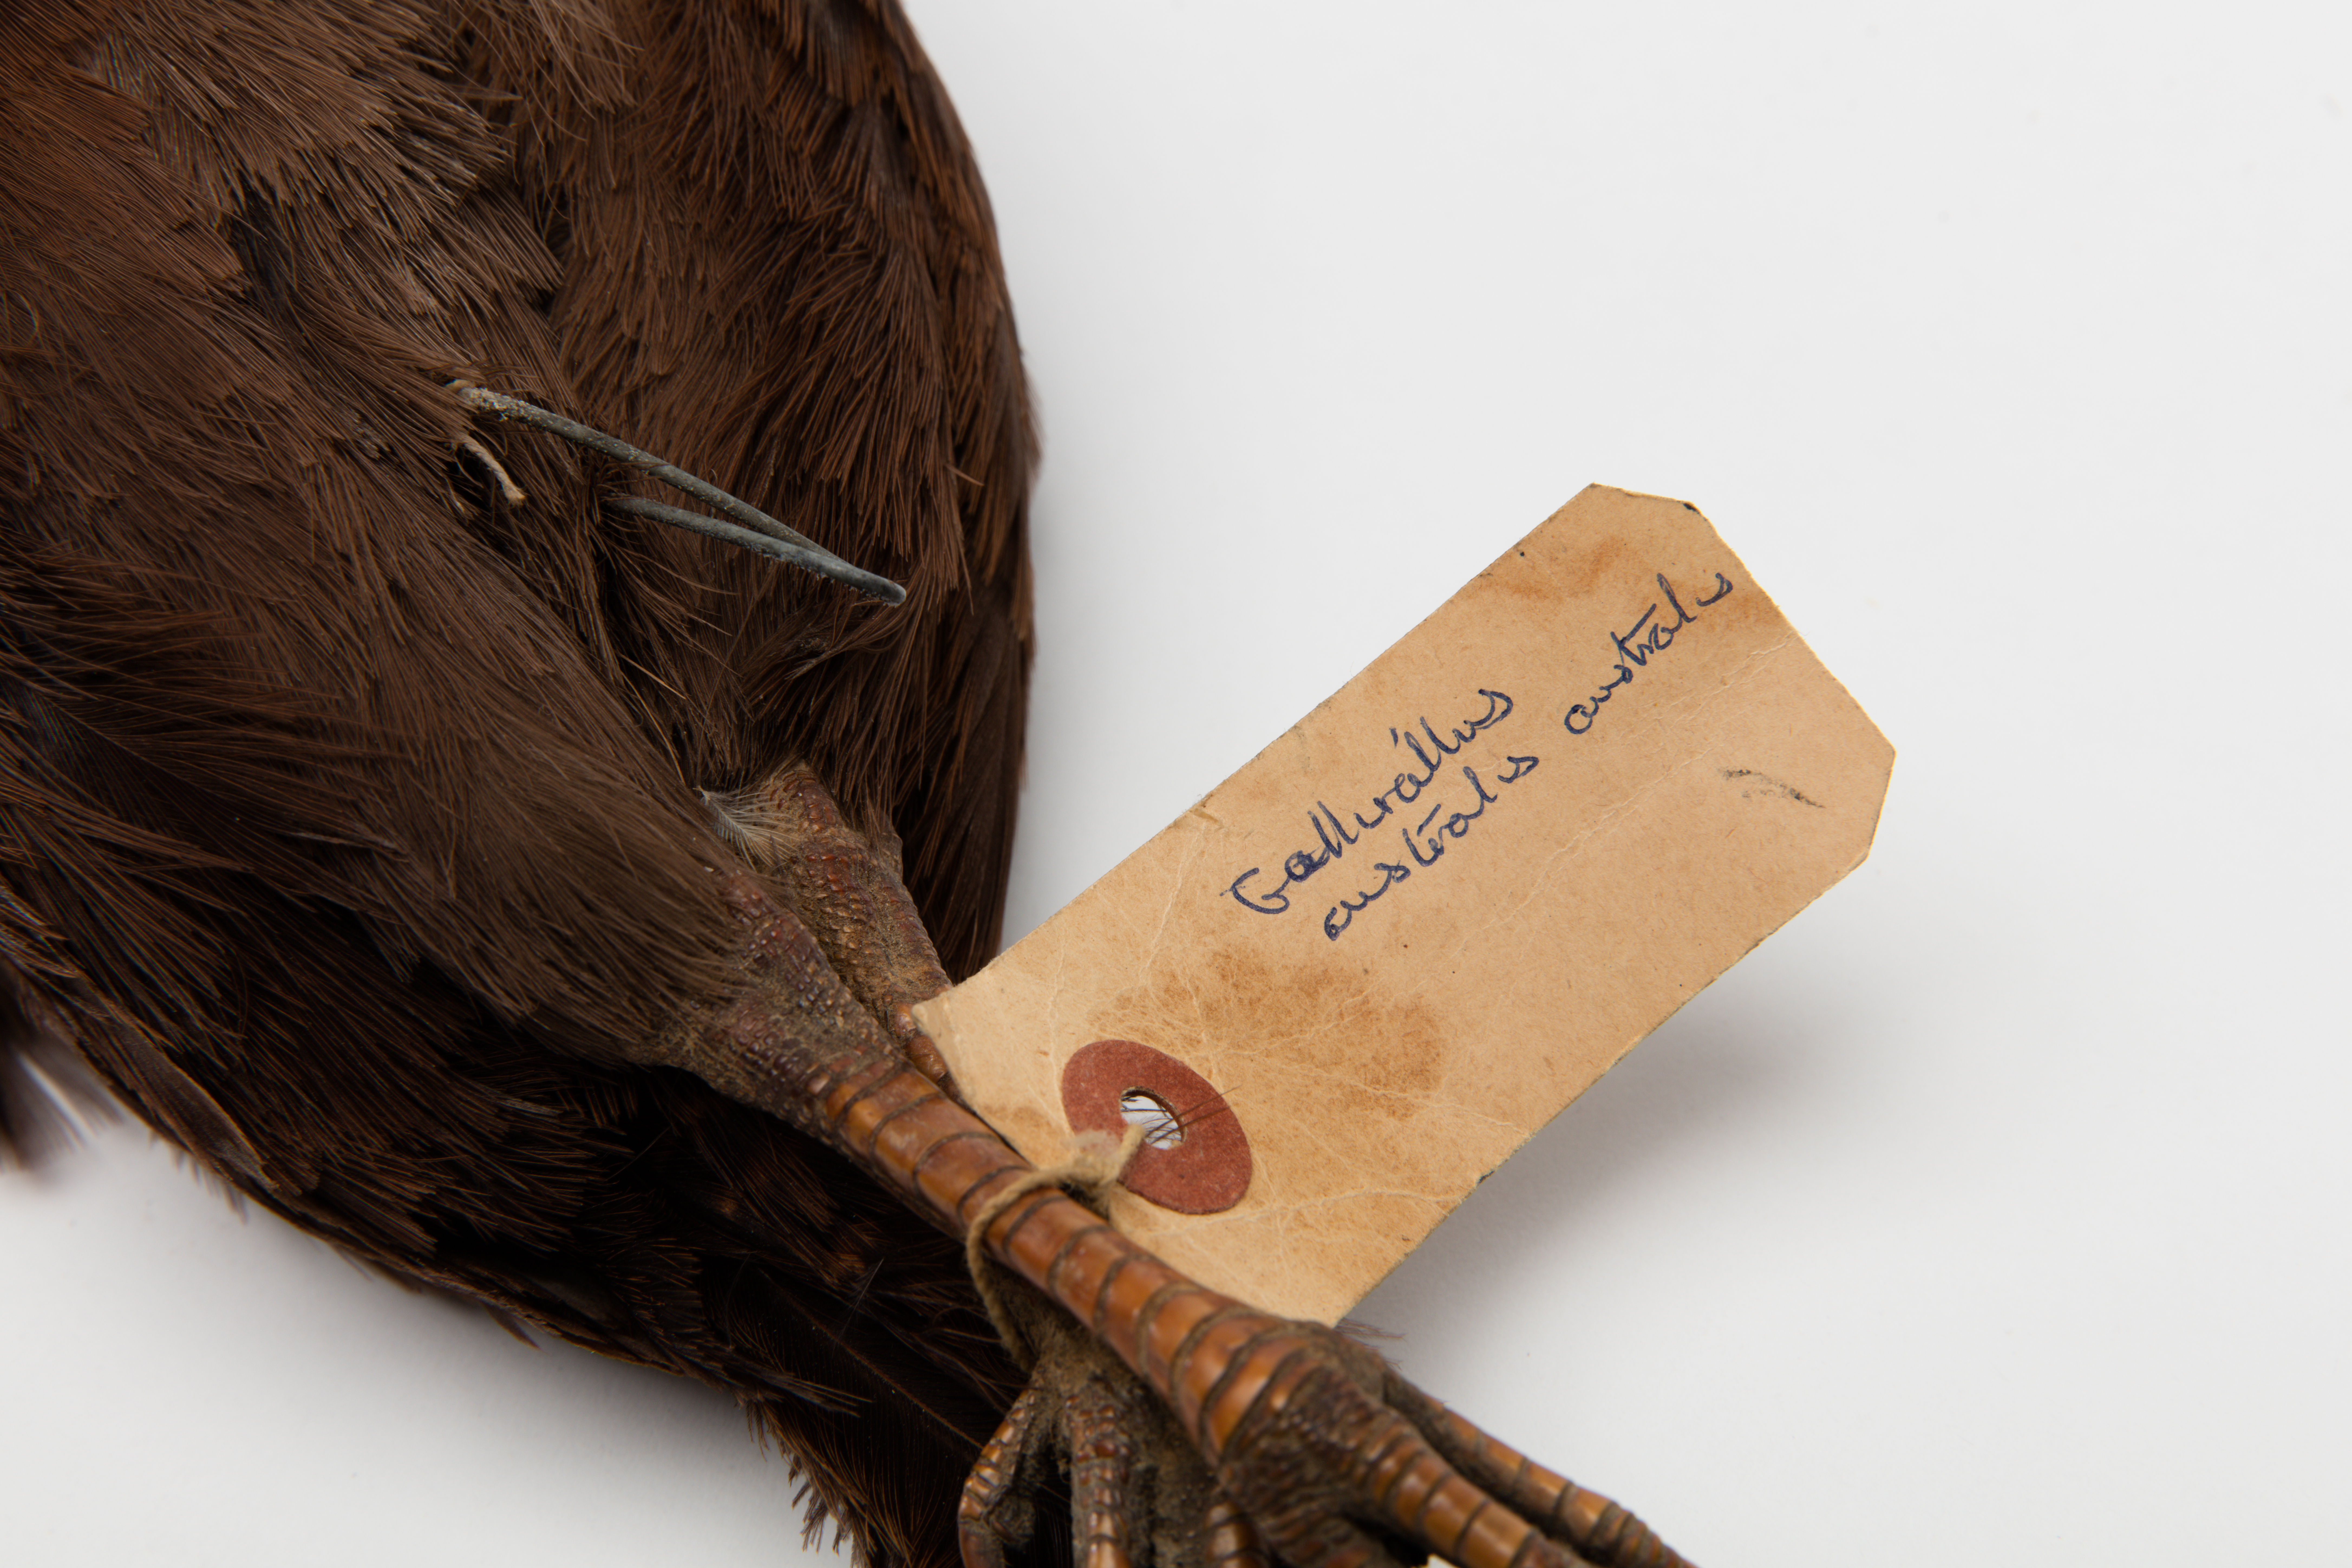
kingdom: Animalia
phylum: Chordata
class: Aves
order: Gruiformes
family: Rallidae
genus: Gallirallus
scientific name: Gallirallus australis
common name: Weka
